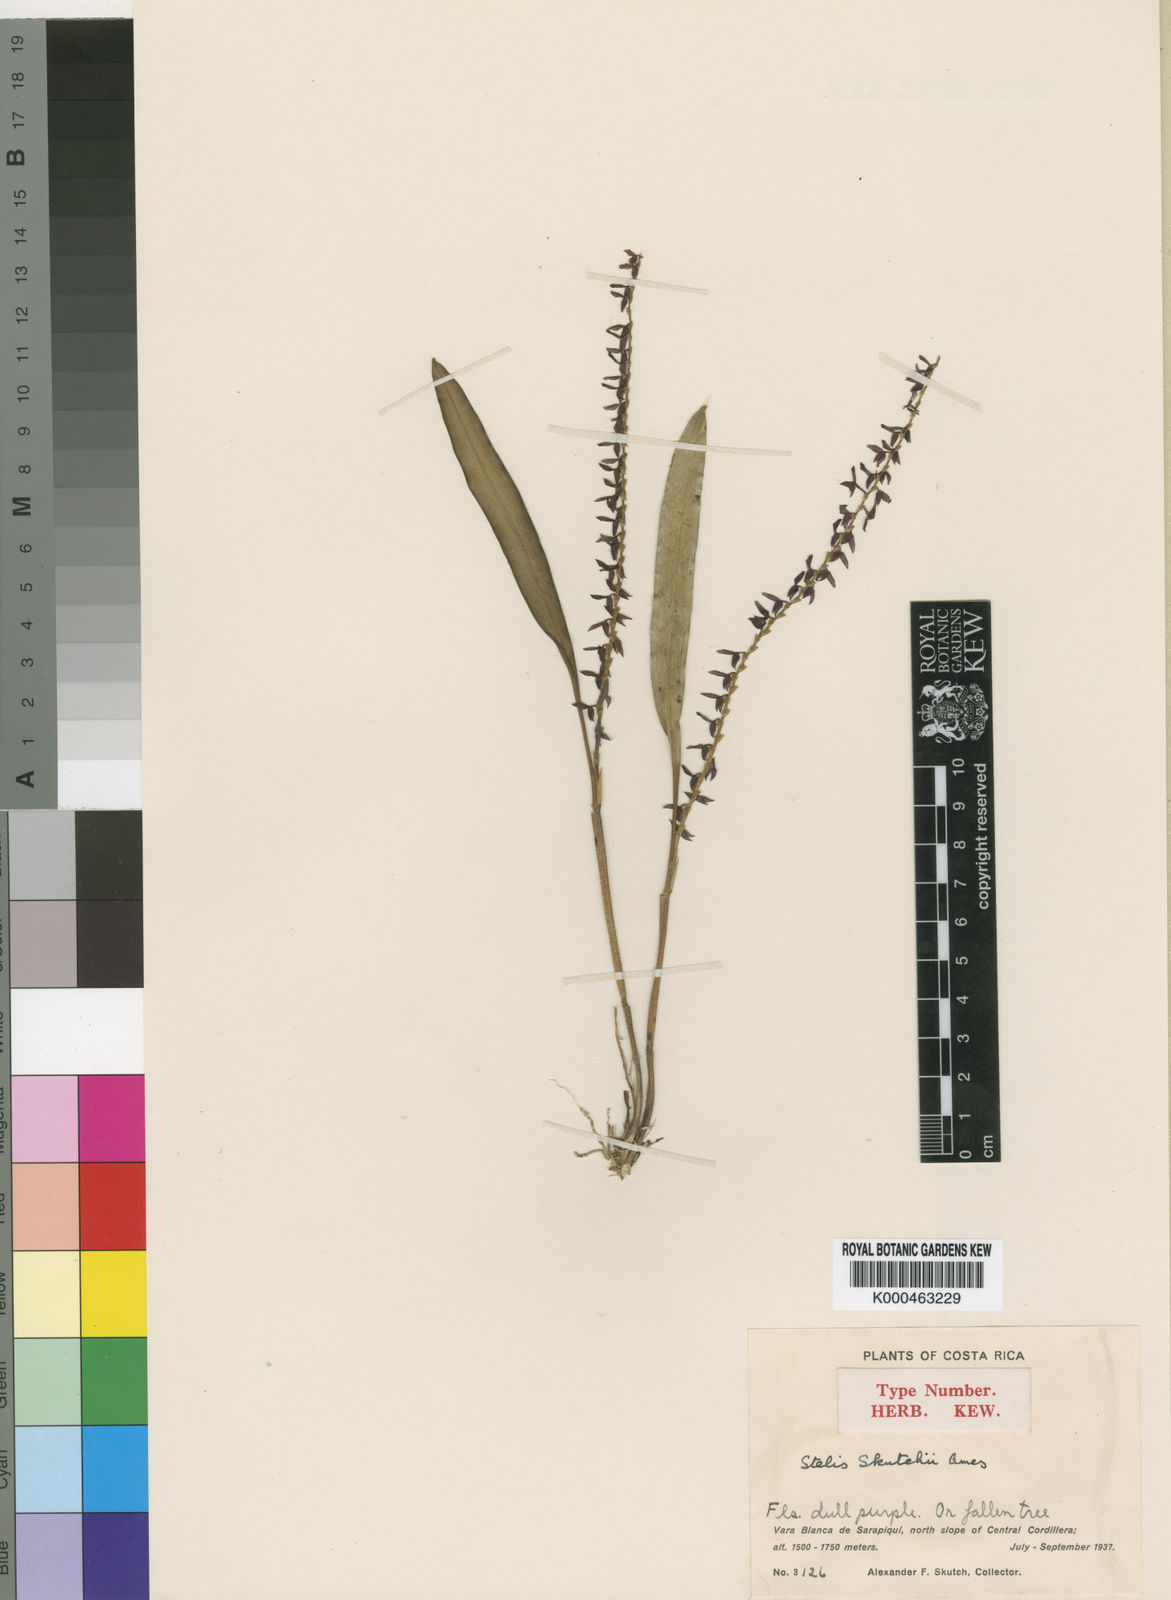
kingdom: Plantae
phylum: Tracheophyta
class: Liliopsida
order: Asparagales
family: Orchidaceae
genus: Stelis
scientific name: Stelis skutchii
